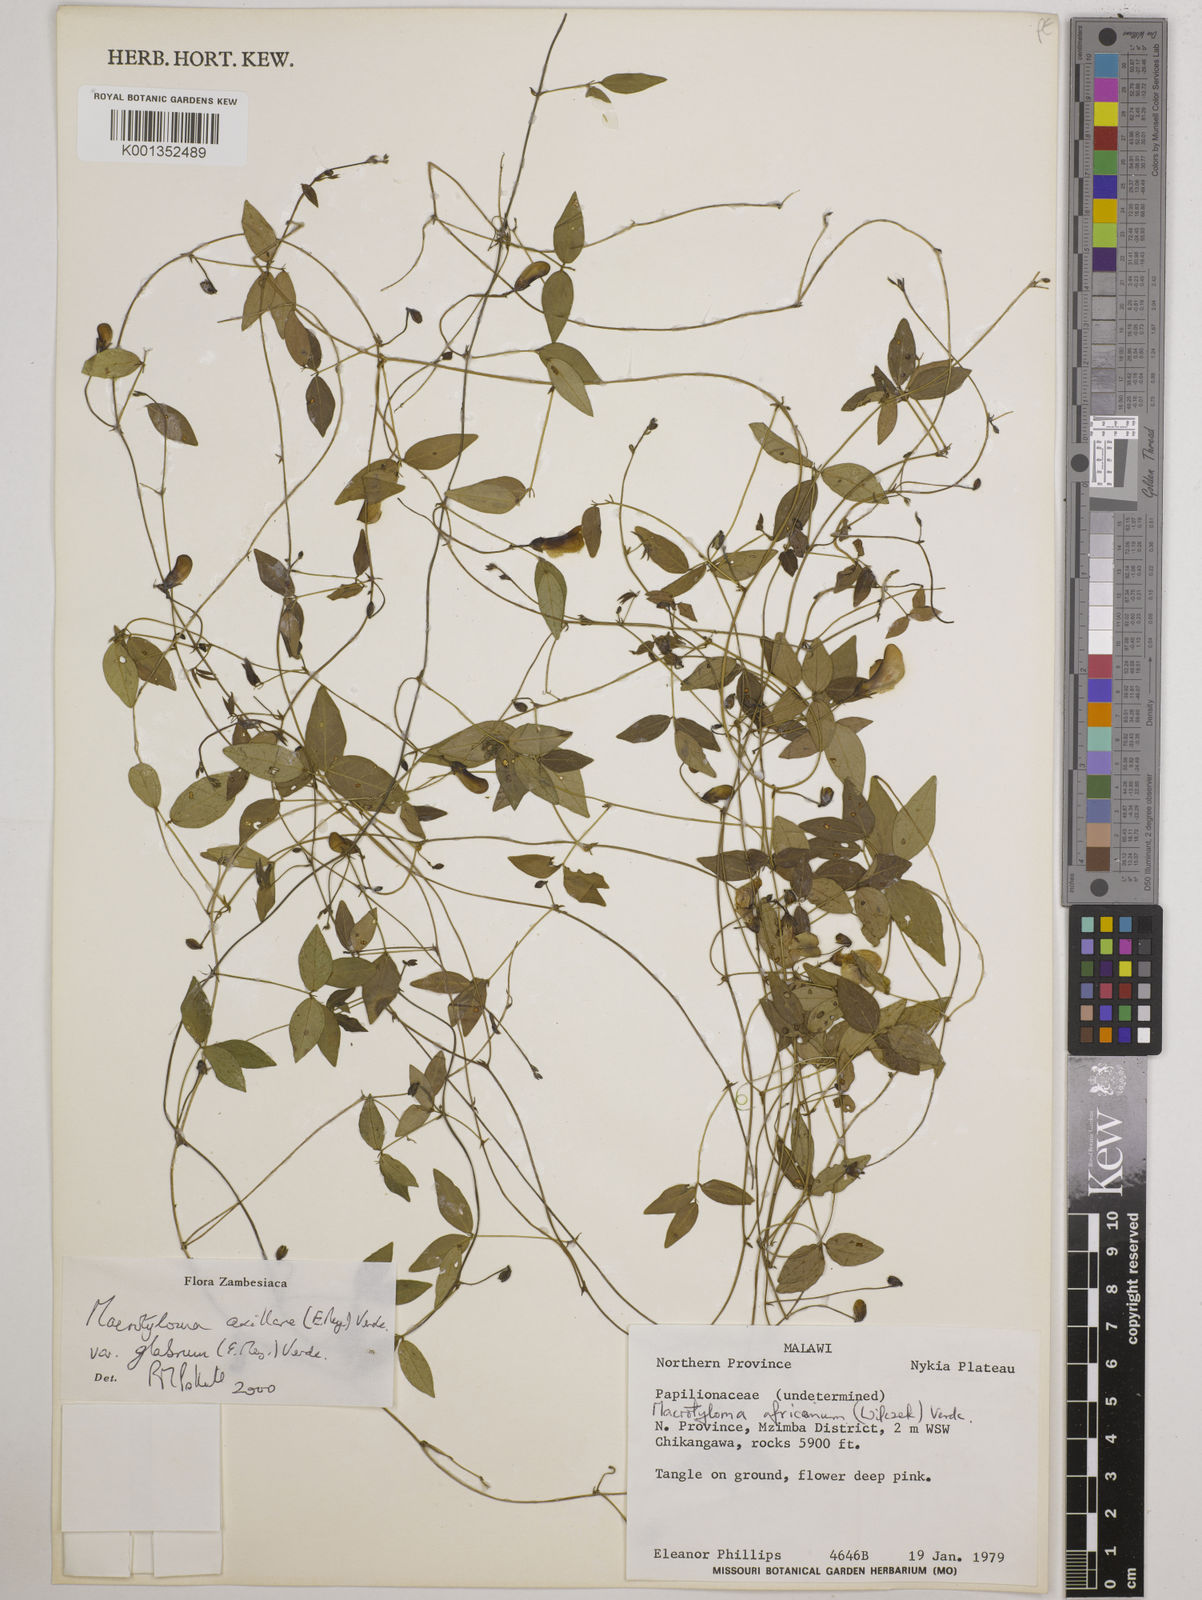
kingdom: Plantae
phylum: Tracheophyta
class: Magnoliopsida
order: Fabales
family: Fabaceae
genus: Macrotyloma
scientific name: Macrotyloma
